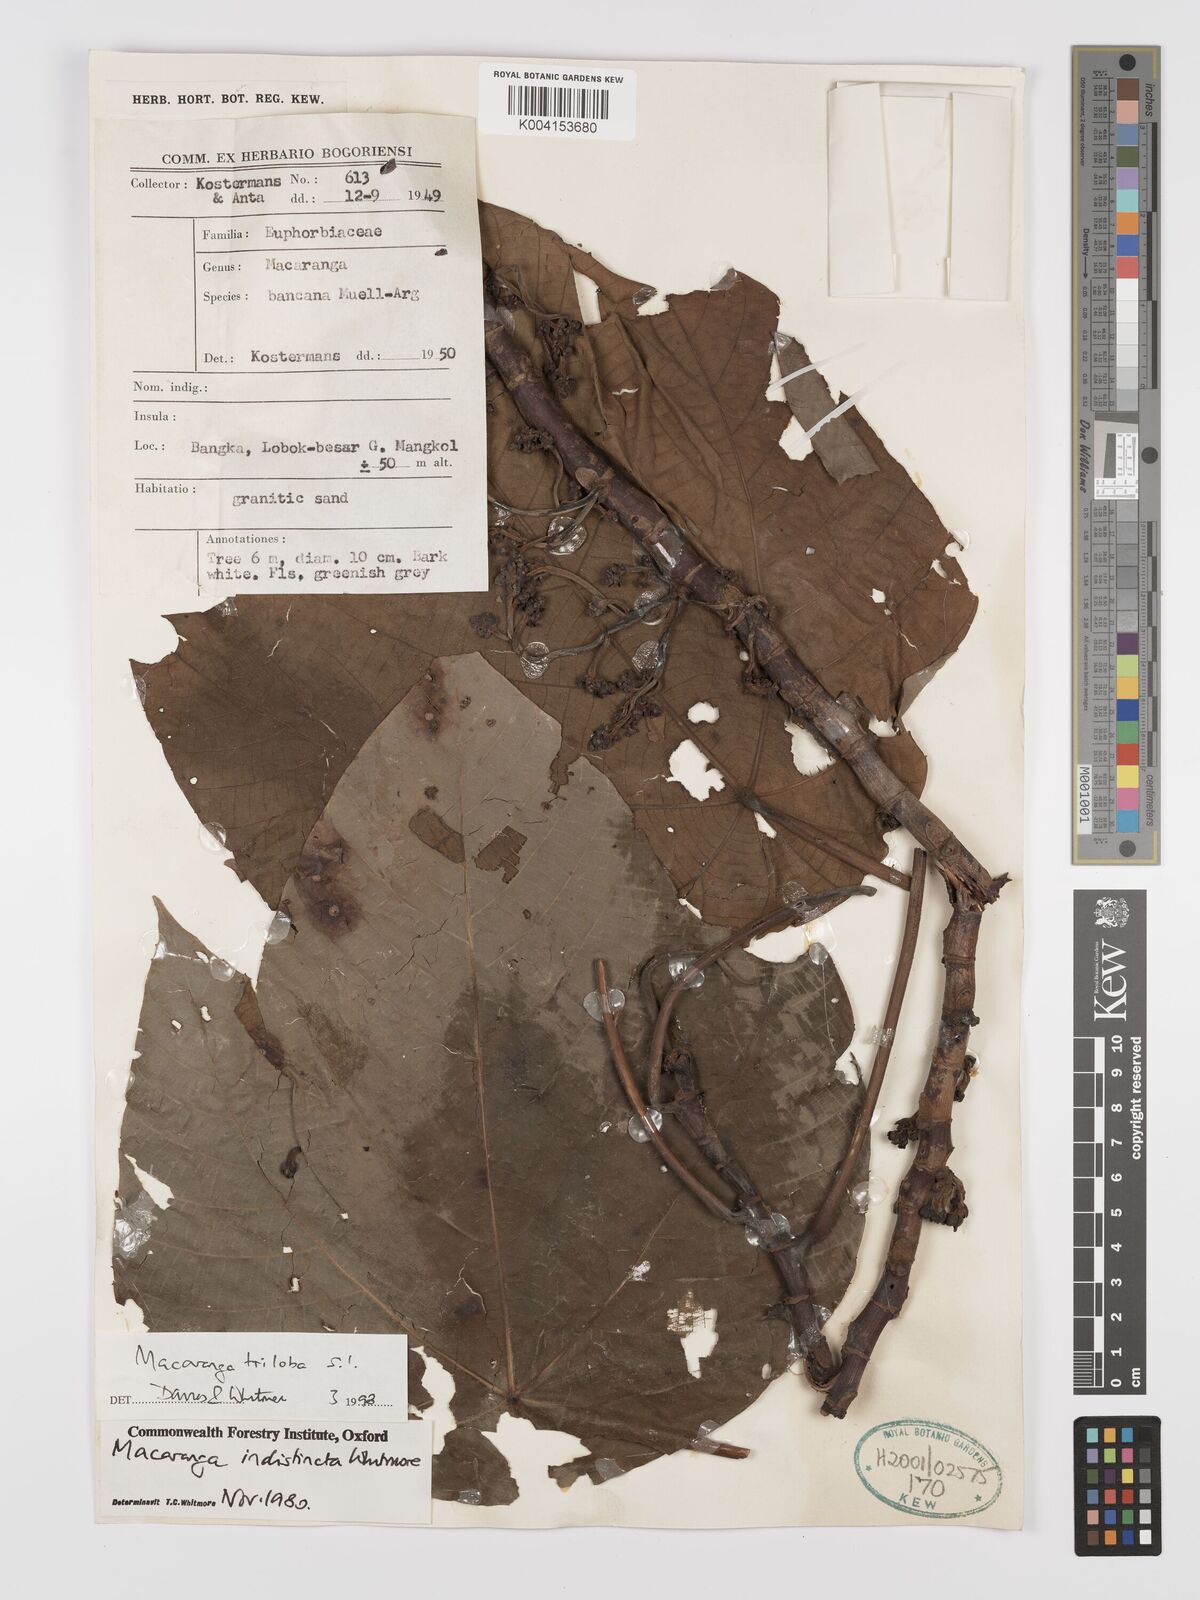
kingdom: Plantae
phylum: Tracheophyta
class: Magnoliopsida
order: Malpighiales
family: Euphorbiaceae
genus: Macaranga
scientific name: Macaranga triloba
